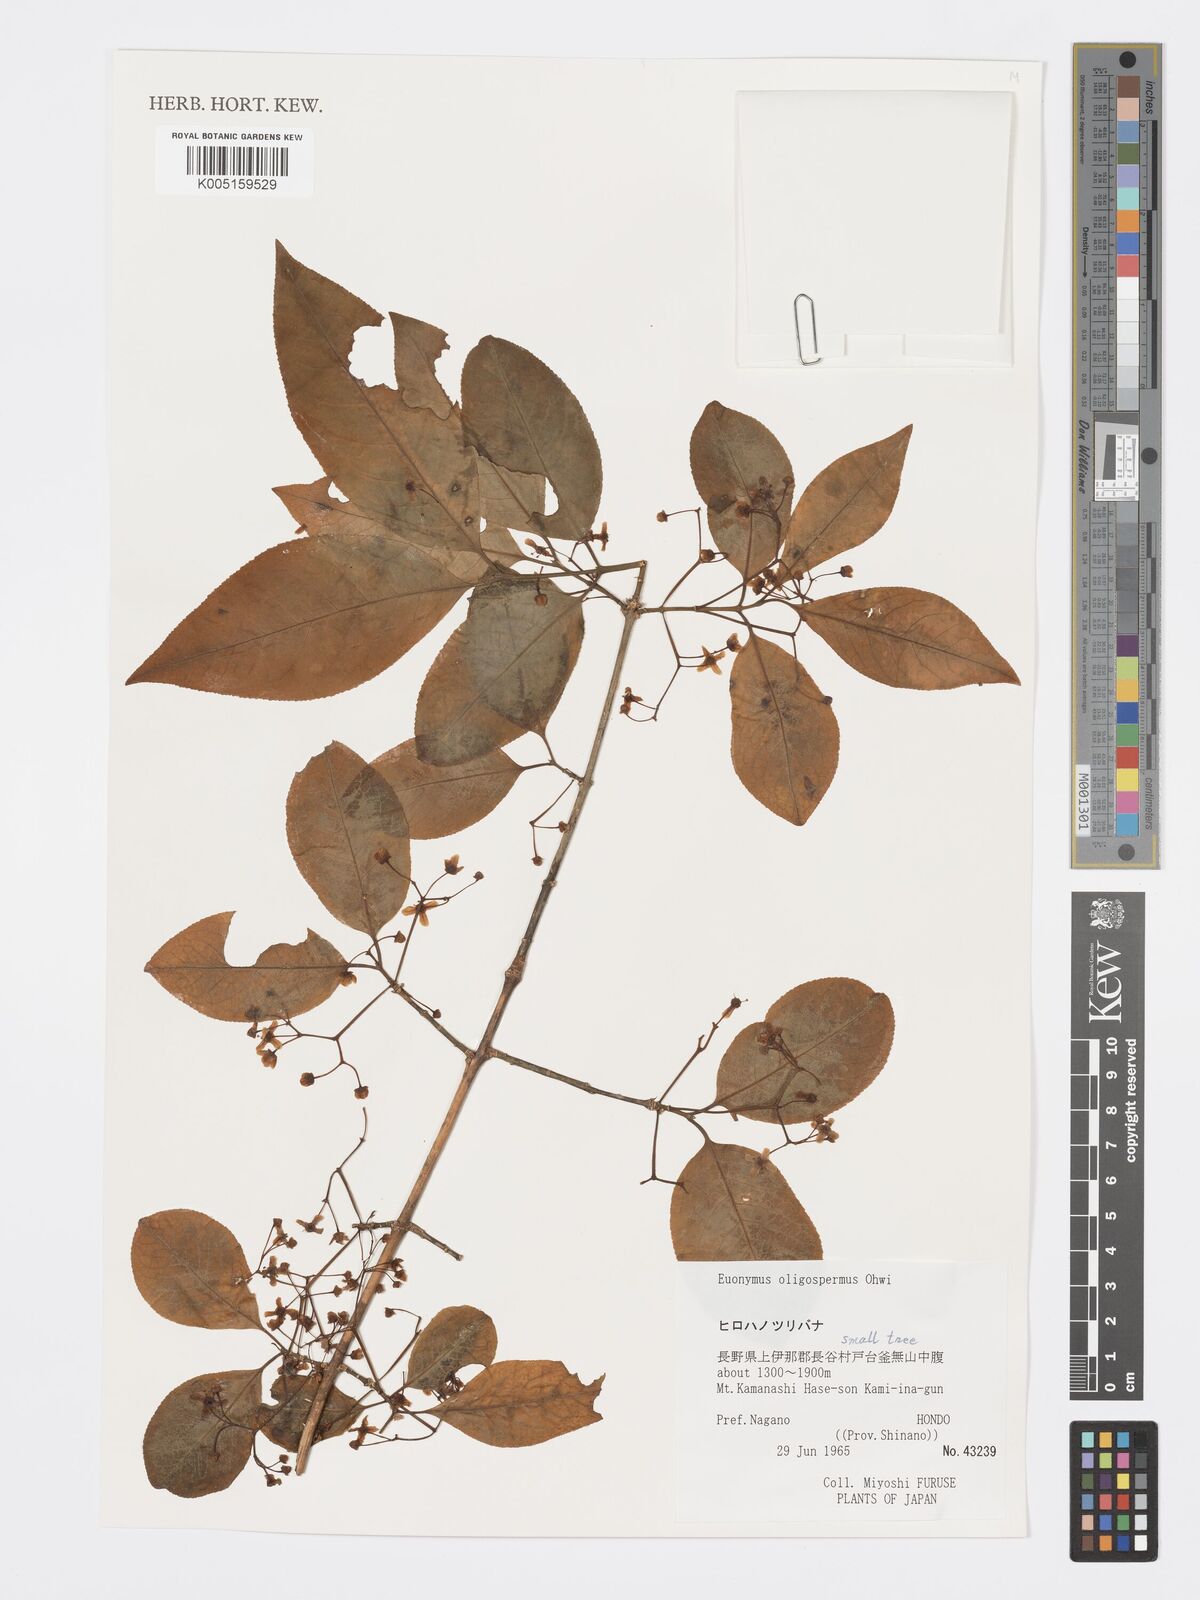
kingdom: Plantae
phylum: Tracheophyta
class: Magnoliopsida
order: Celastrales
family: Celastraceae
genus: Euonymus
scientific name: Euonymus verrucosus
